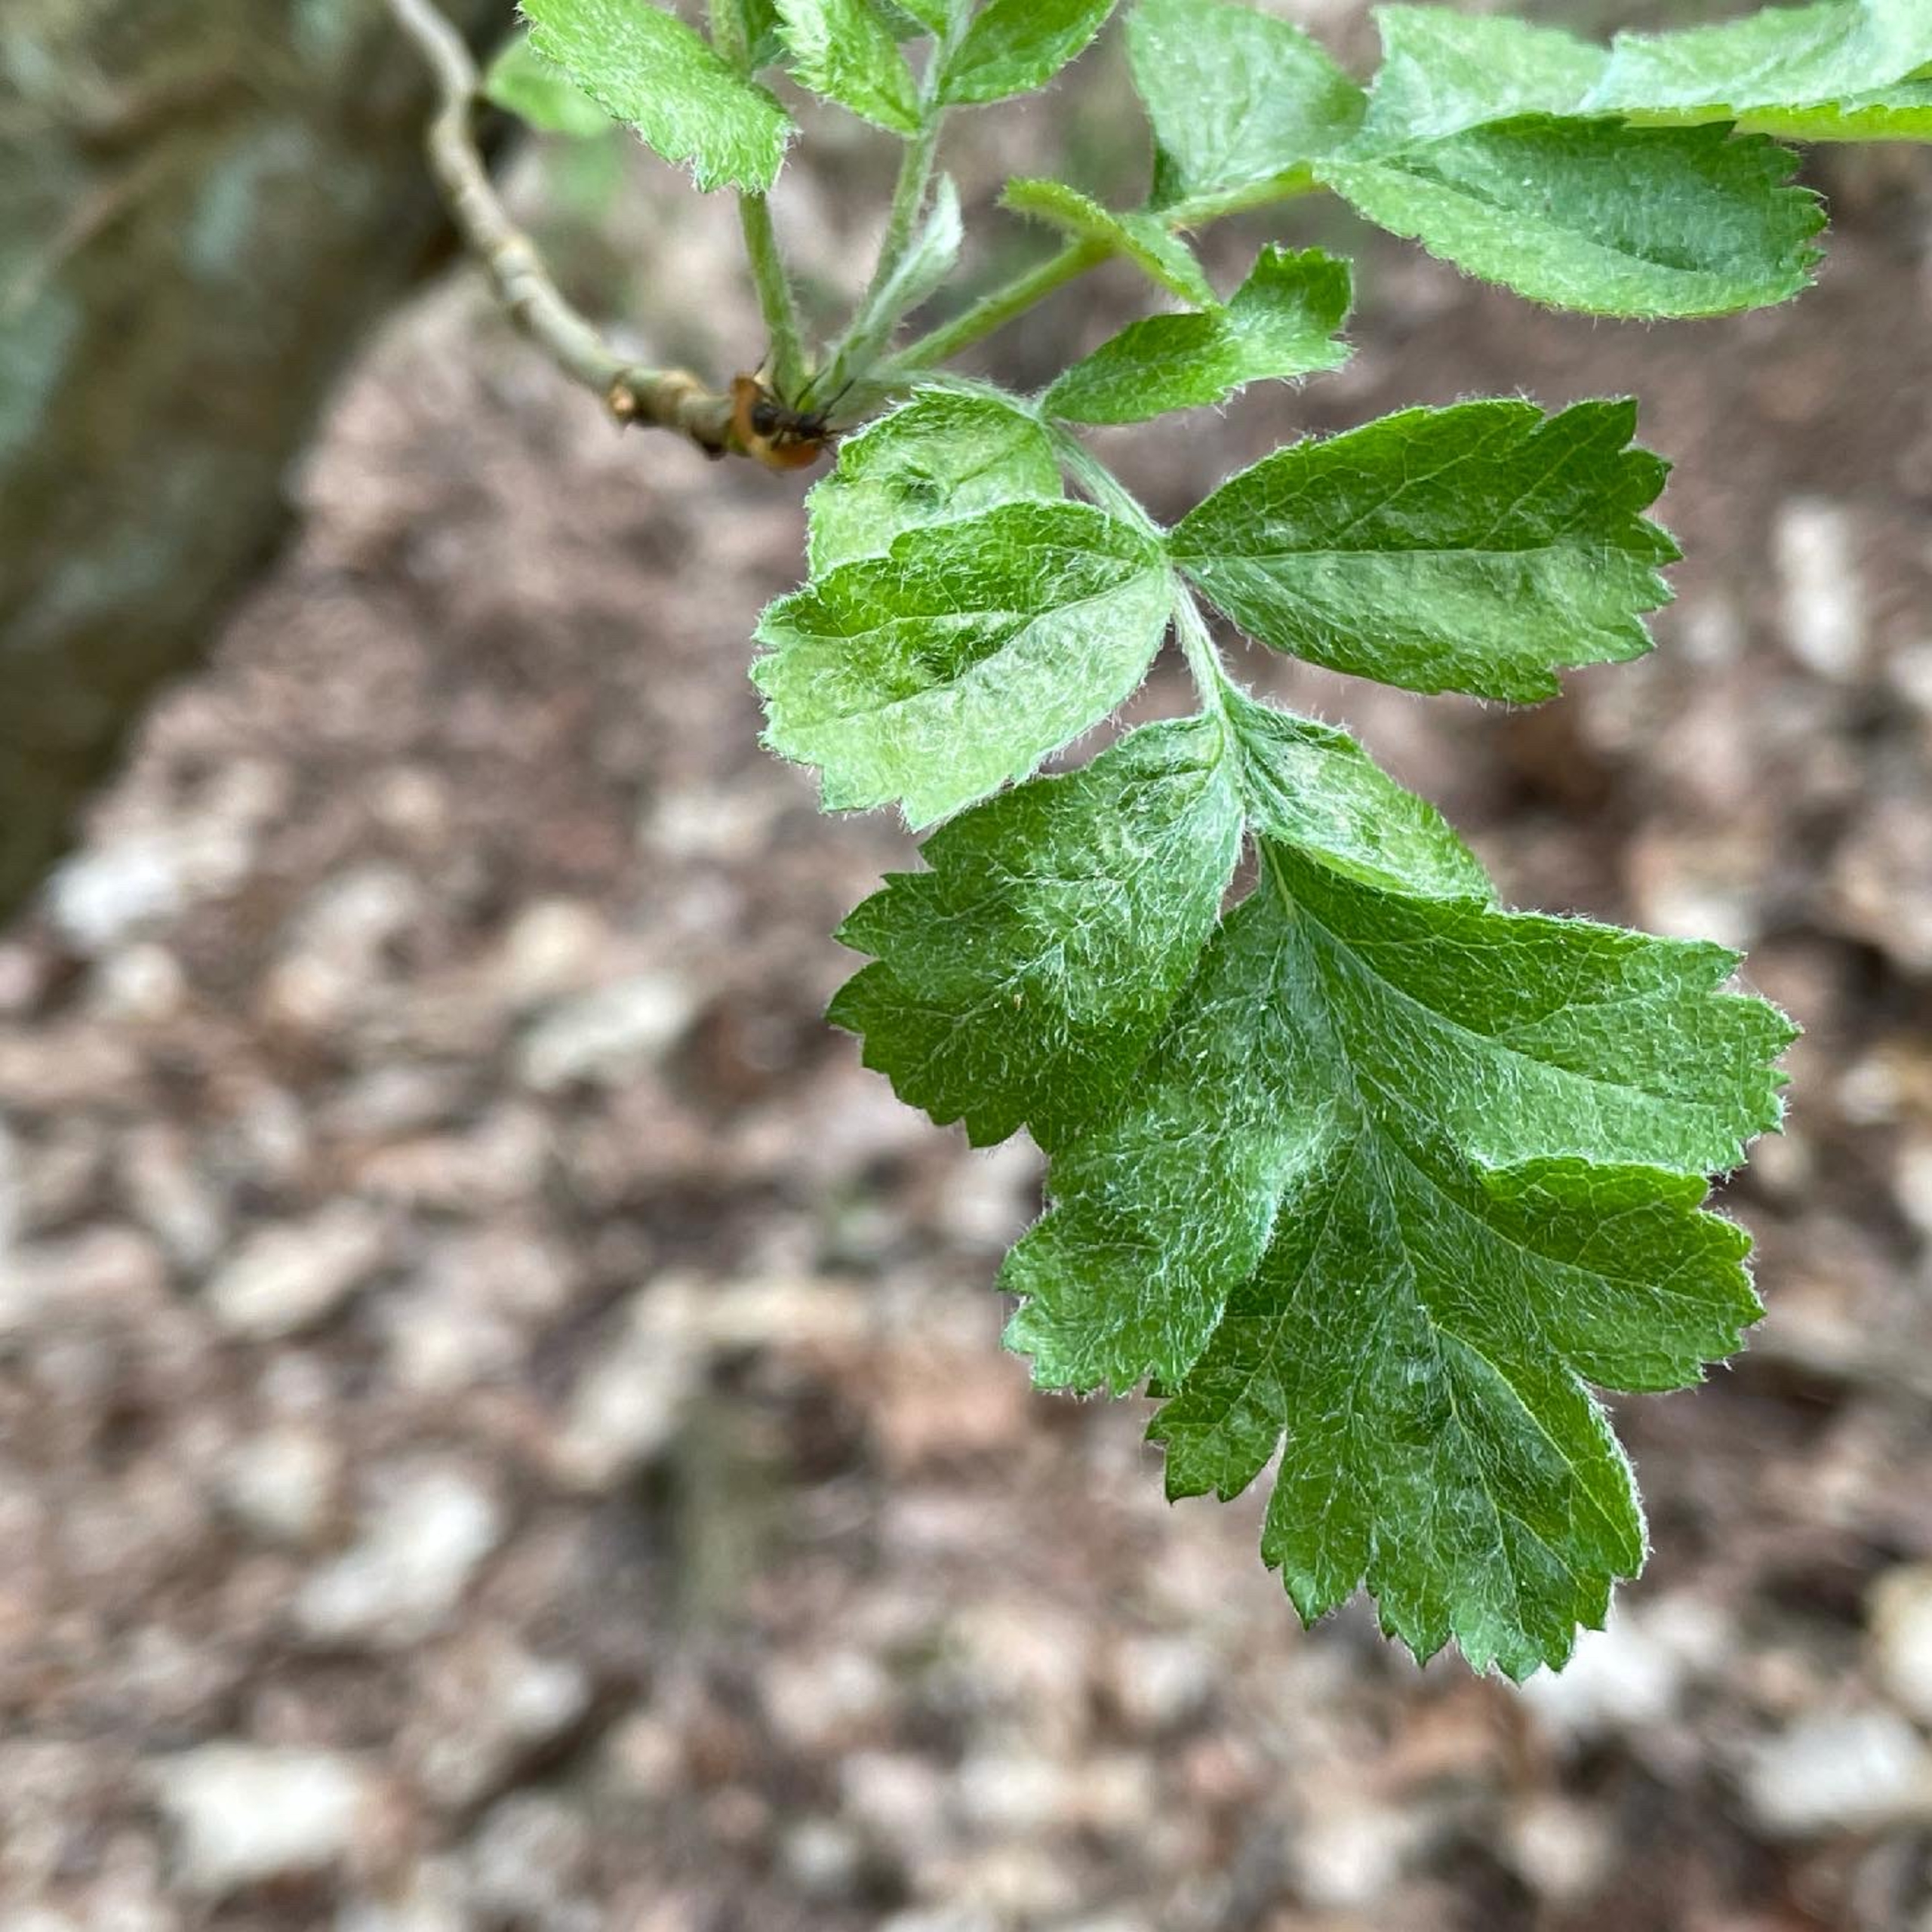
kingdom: Plantae
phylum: Tracheophyta
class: Magnoliopsida
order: Rosales
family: Rosaceae
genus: Scandosorbus
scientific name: Scandosorbus liljeforsii
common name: Almindelig røn × selje-røn
